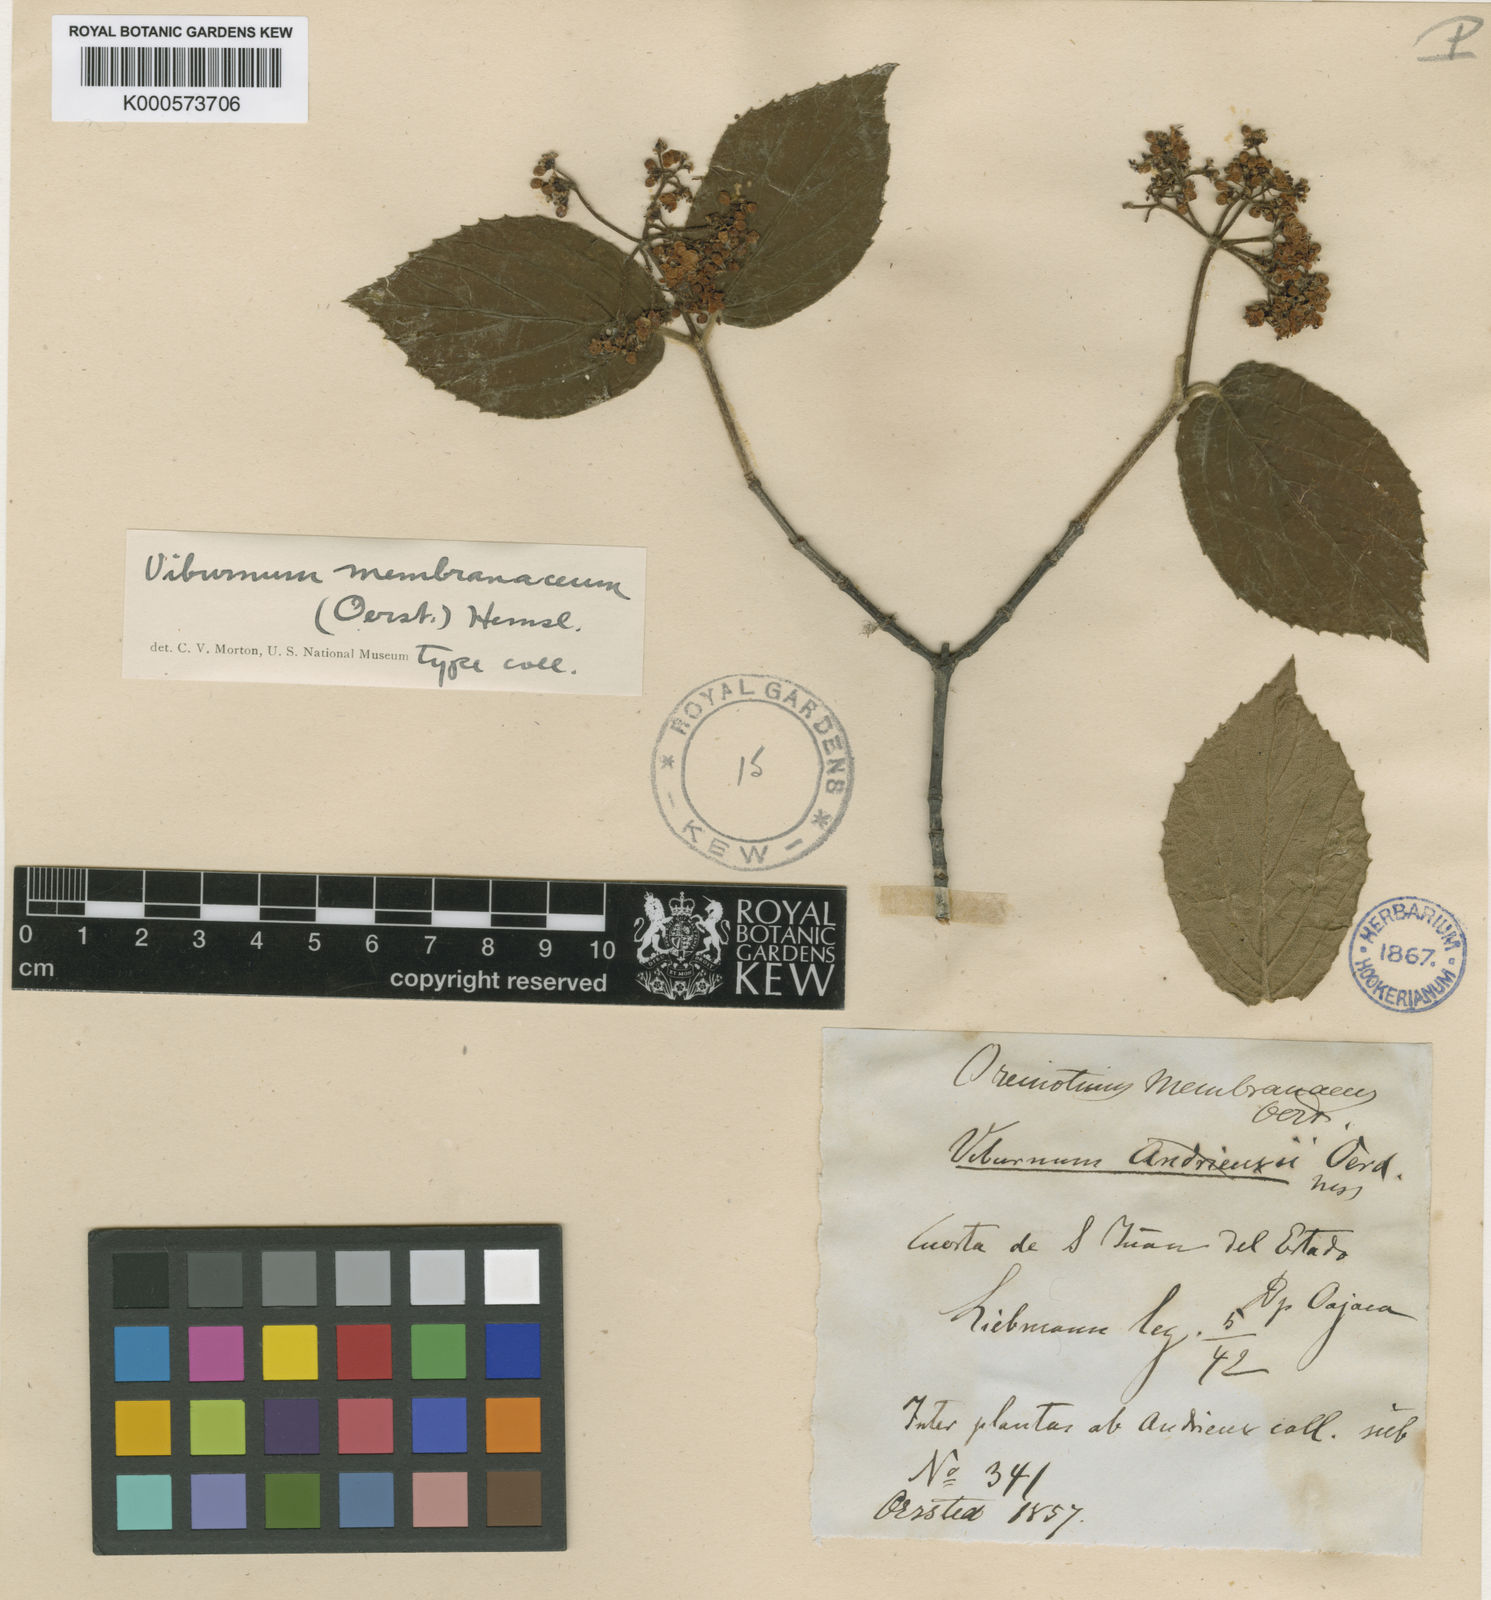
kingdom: Plantae
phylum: Tracheophyta
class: Magnoliopsida
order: Dipsacales
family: Viburnaceae
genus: Viburnum
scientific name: Viburnum macdougallii
